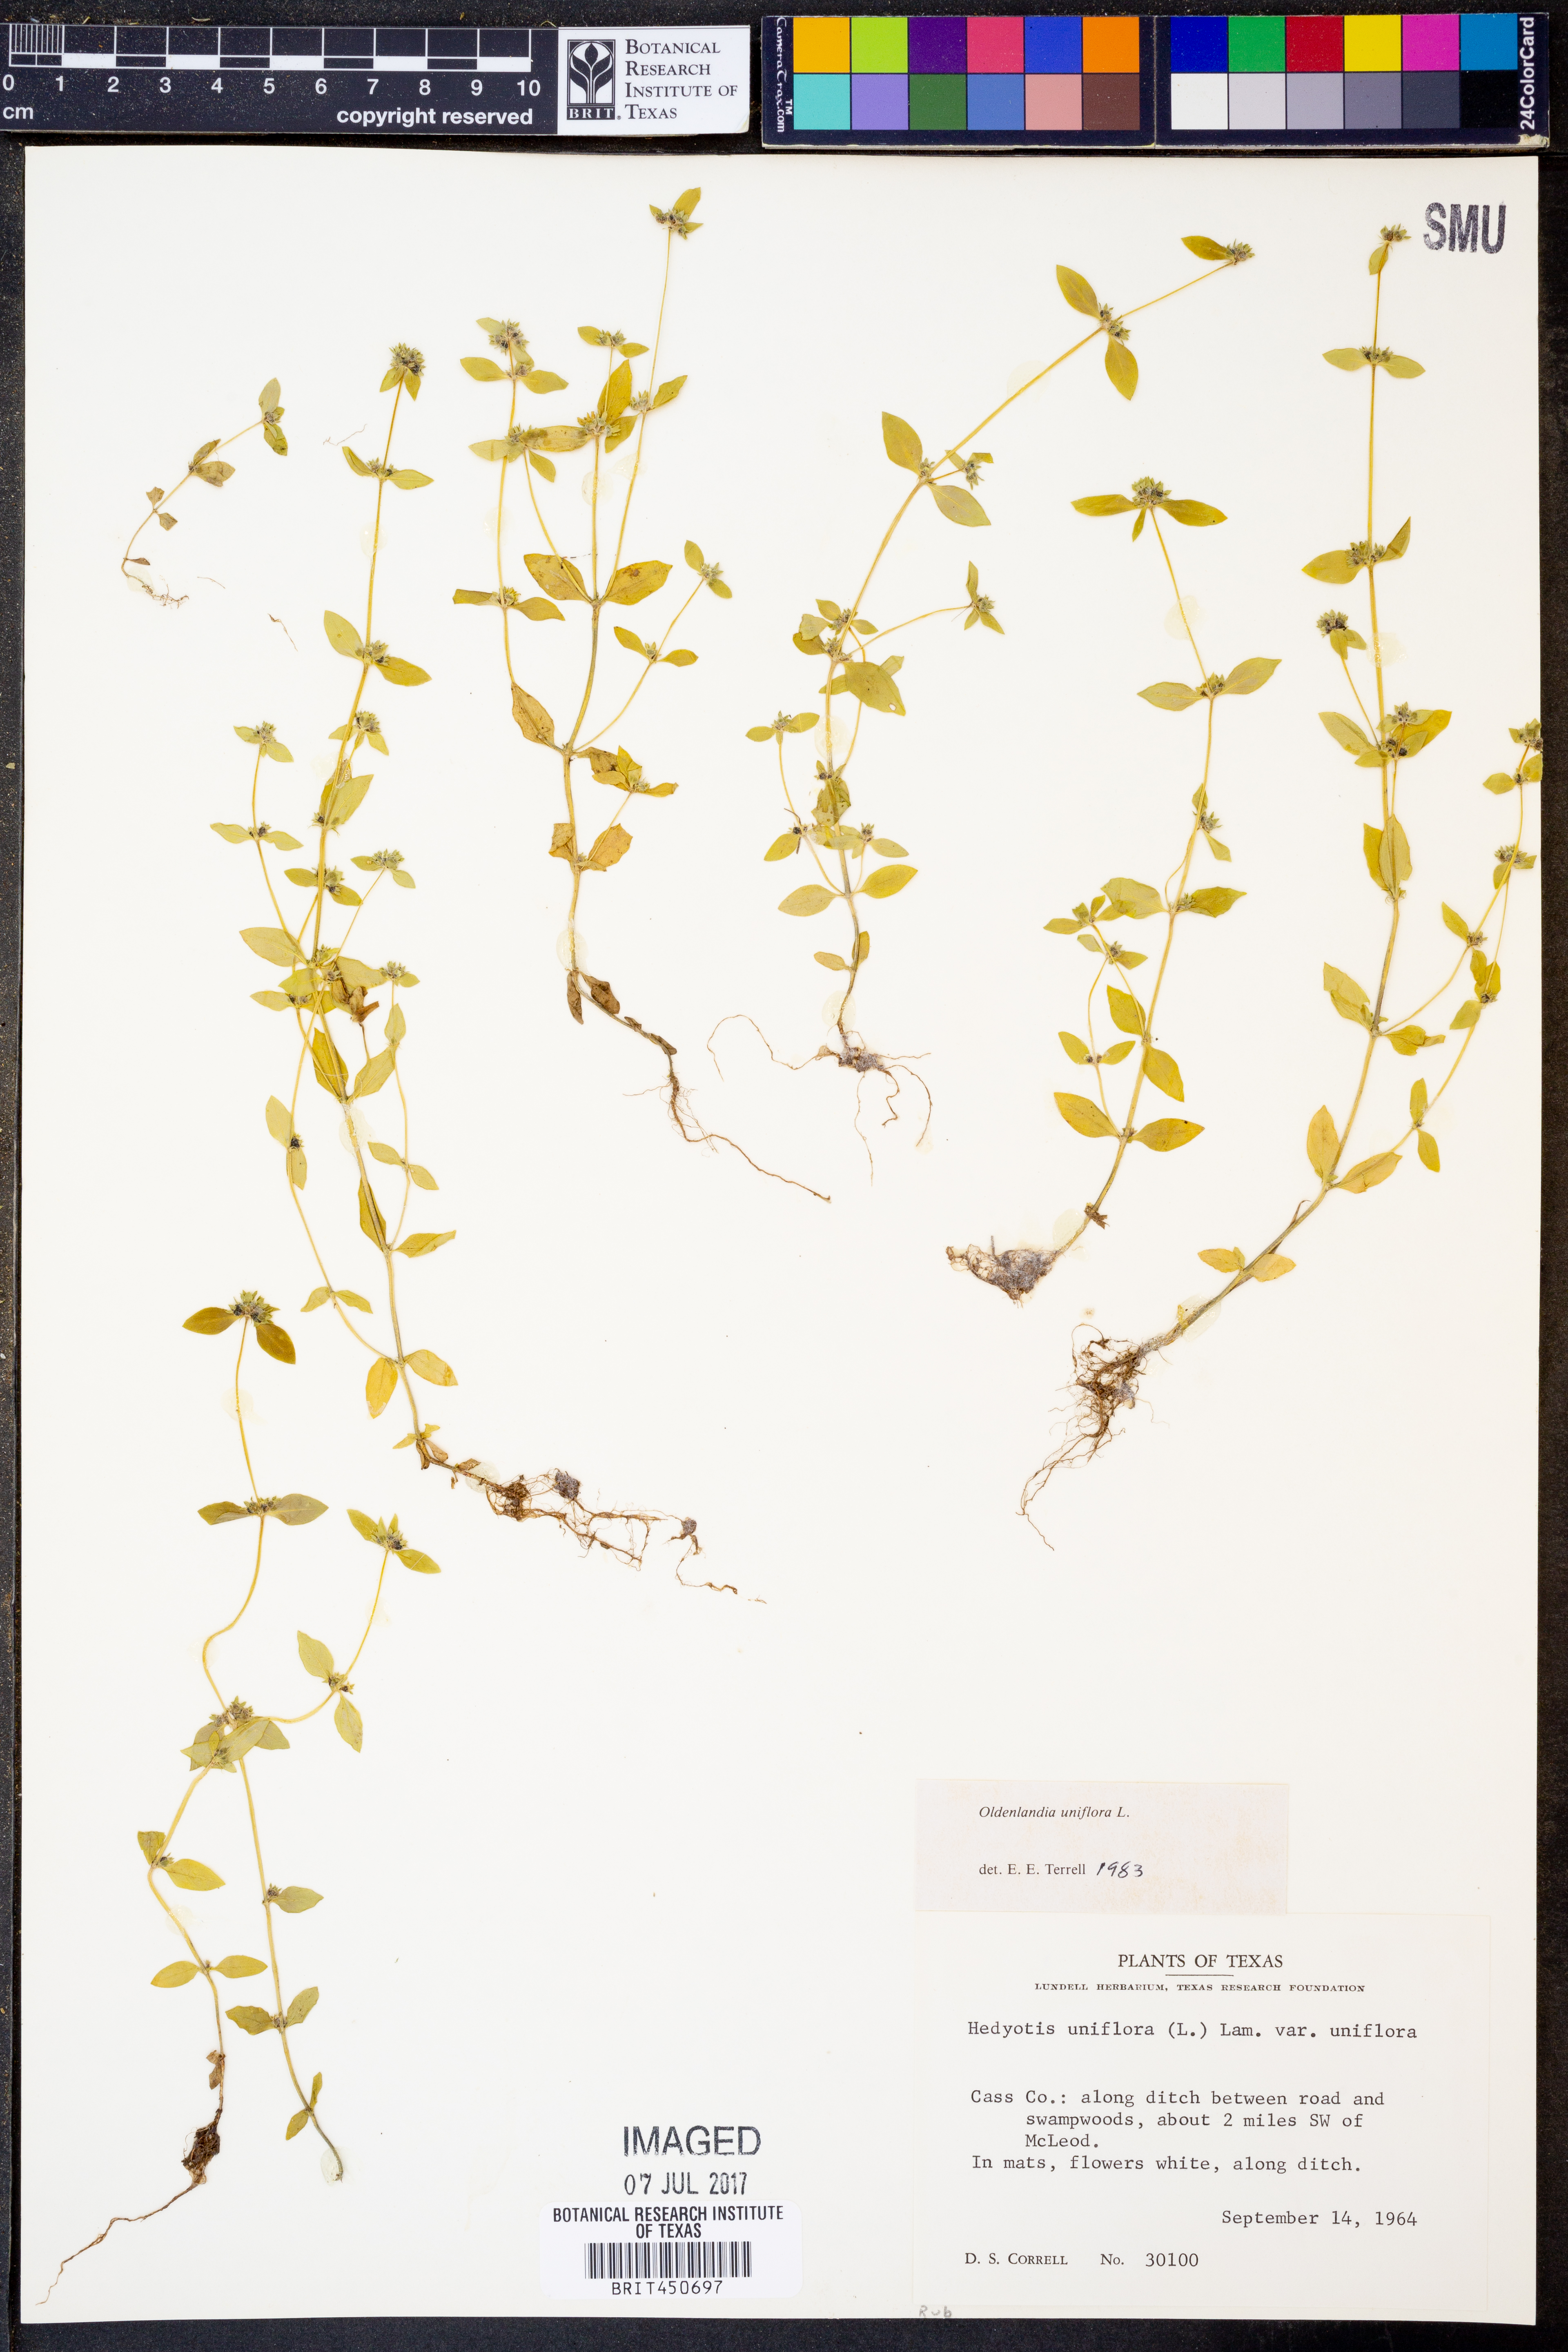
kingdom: Plantae
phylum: Tracheophyta
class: Magnoliopsida
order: Gentianales
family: Rubiaceae
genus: Edrastima
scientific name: Edrastima uniflora
